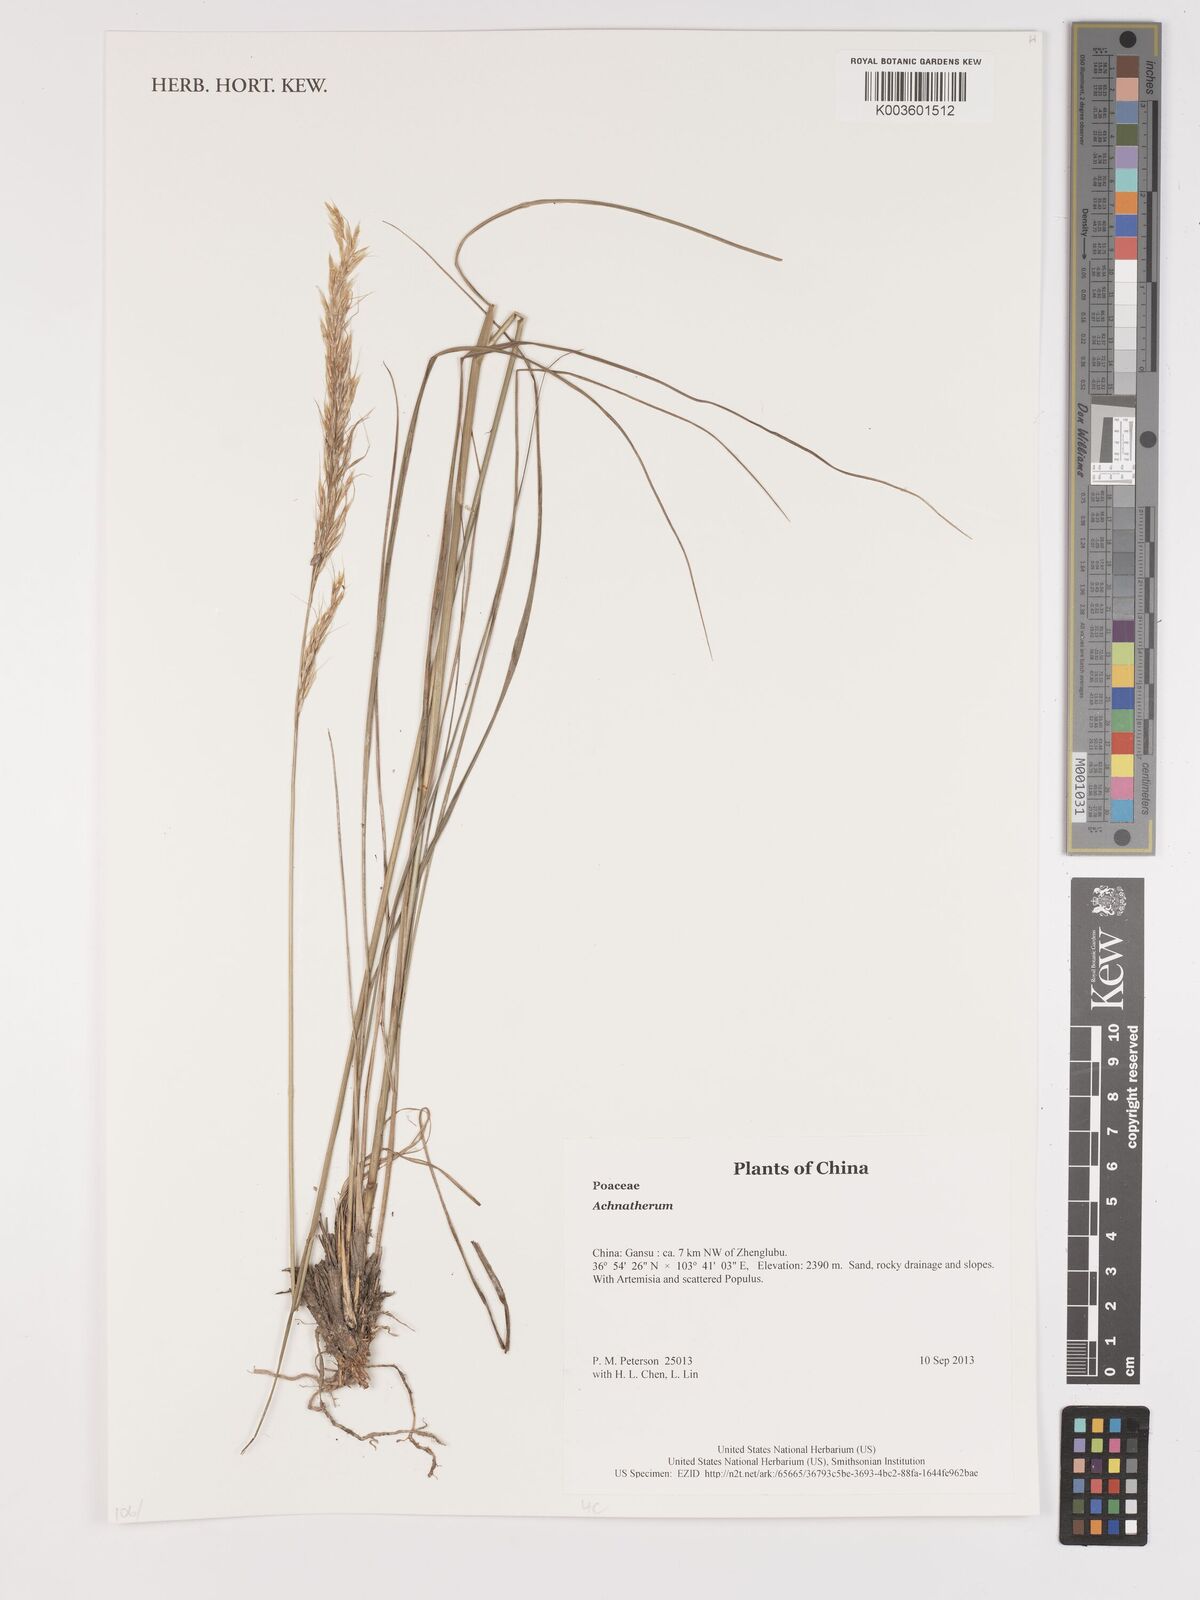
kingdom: Plantae
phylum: Tracheophyta
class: Liliopsida
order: Poales
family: Poaceae
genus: Stipa
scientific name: Stipa
